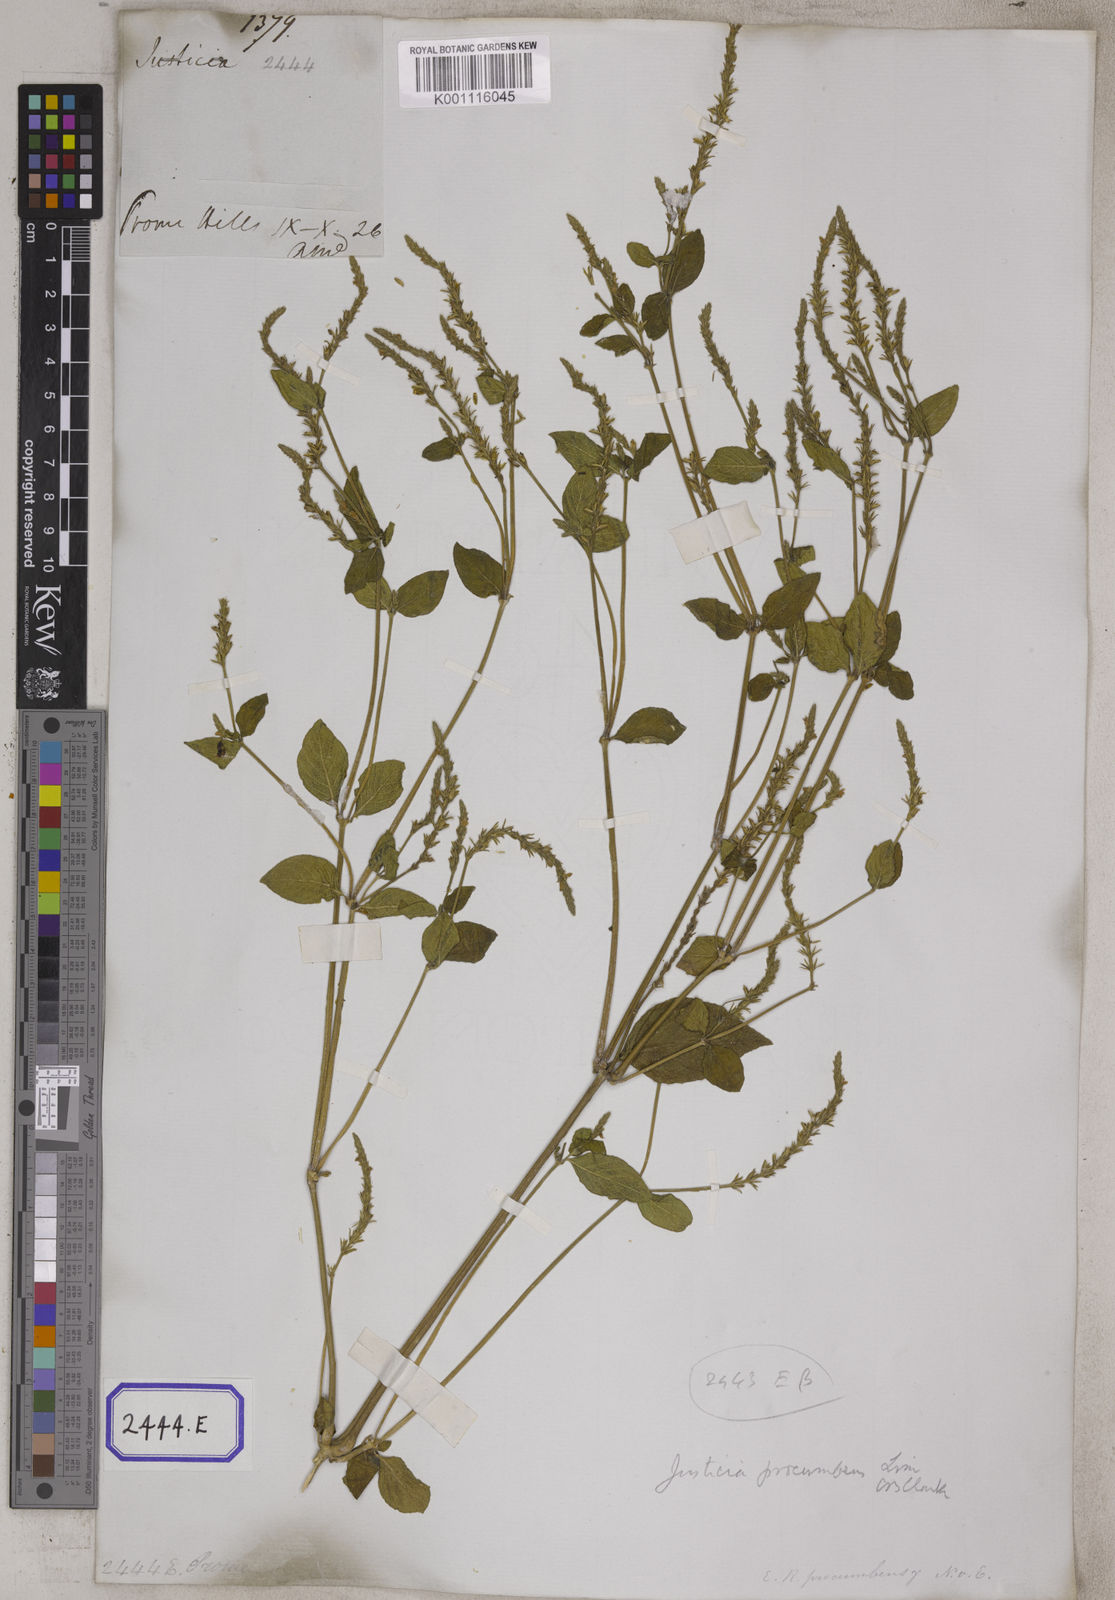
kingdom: Plantae
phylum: Tracheophyta
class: Magnoliopsida
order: Lamiales
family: Acanthaceae
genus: Justicia
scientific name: Justicia
